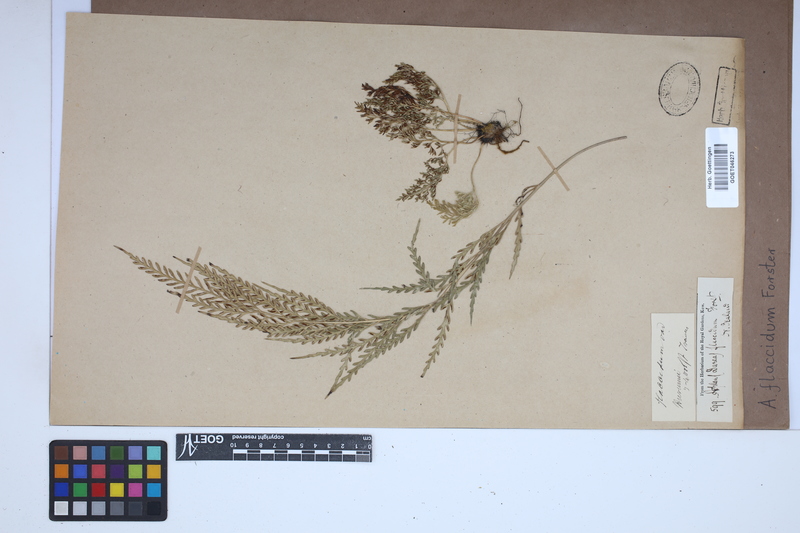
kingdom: Plantae
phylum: Tracheophyta
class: Polypodiopsida
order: Polypodiales
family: Aspleniaceae
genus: Asplenium
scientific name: Asplenium flaccidum
